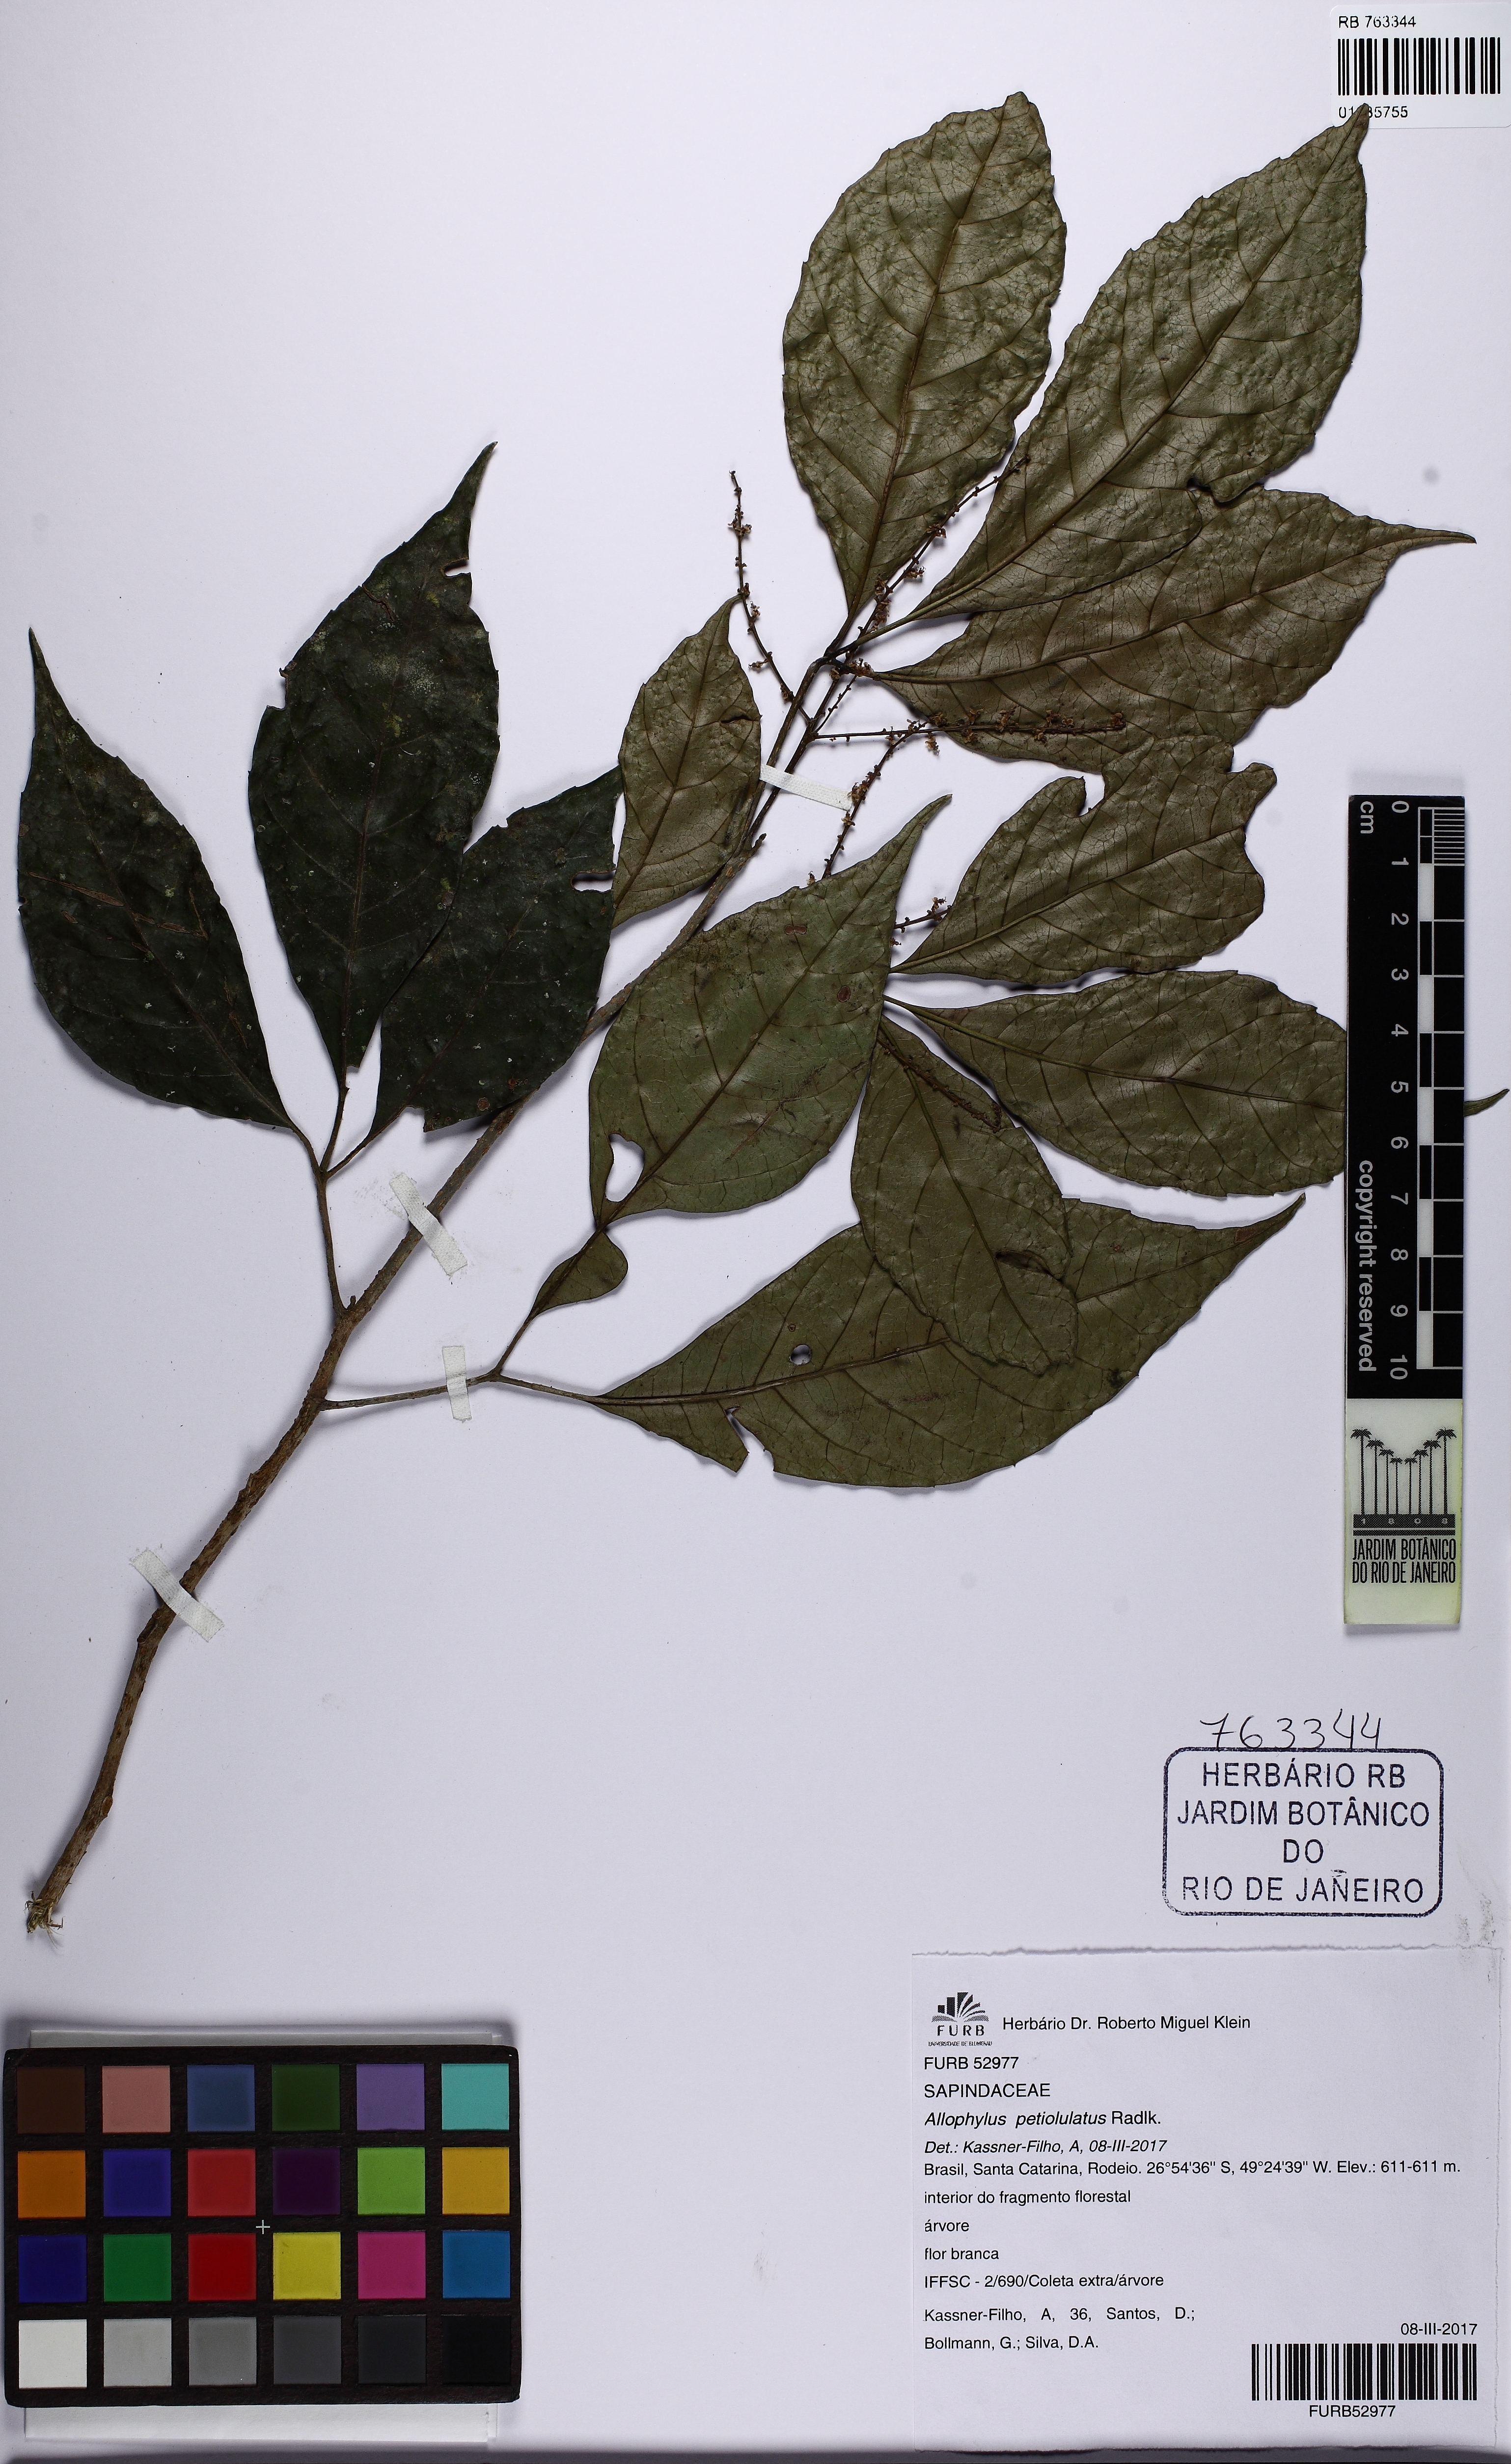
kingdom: Plantae
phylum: Tracheophyta
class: Magnoliopsida
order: Sapindales
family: Sapindaceae
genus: Allophylus
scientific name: Allophylus petiolulatus
